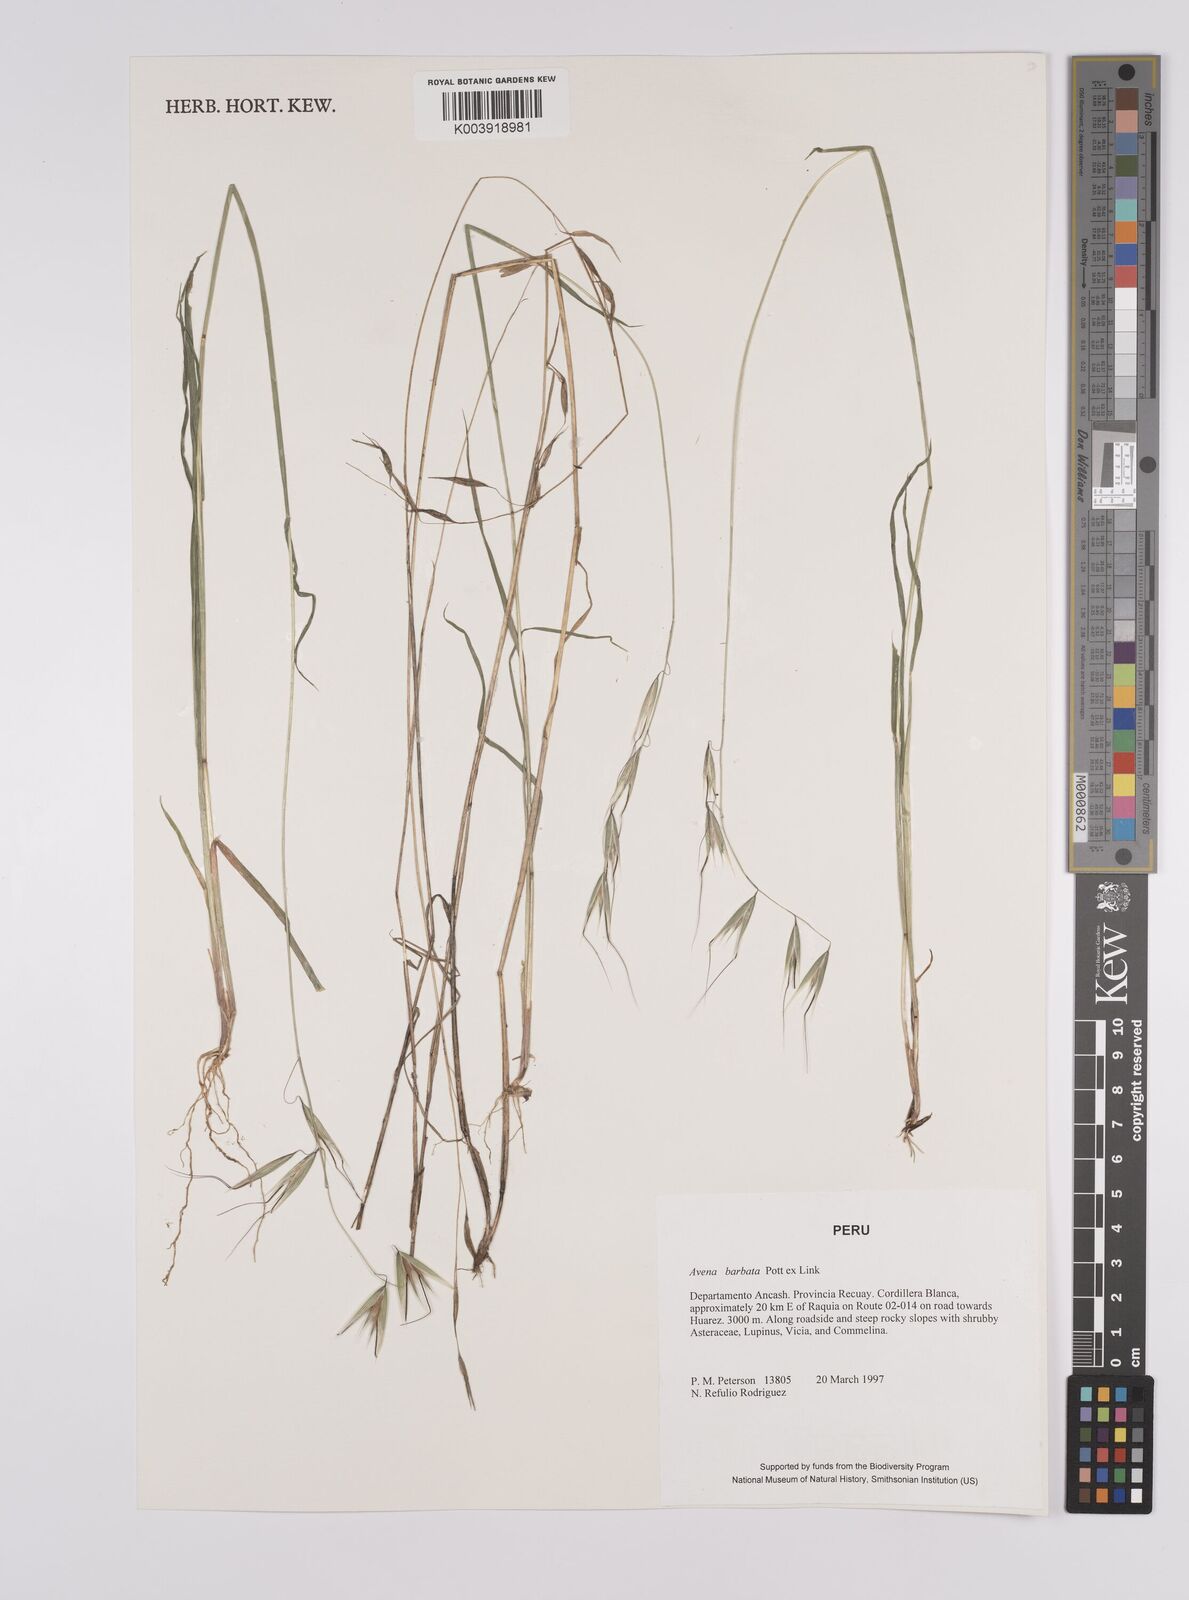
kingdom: Plantae
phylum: Tracheophyta
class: Liliopsida
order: Poales
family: Poaceae
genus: Avena
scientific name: Avena barbata
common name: Slender oat
